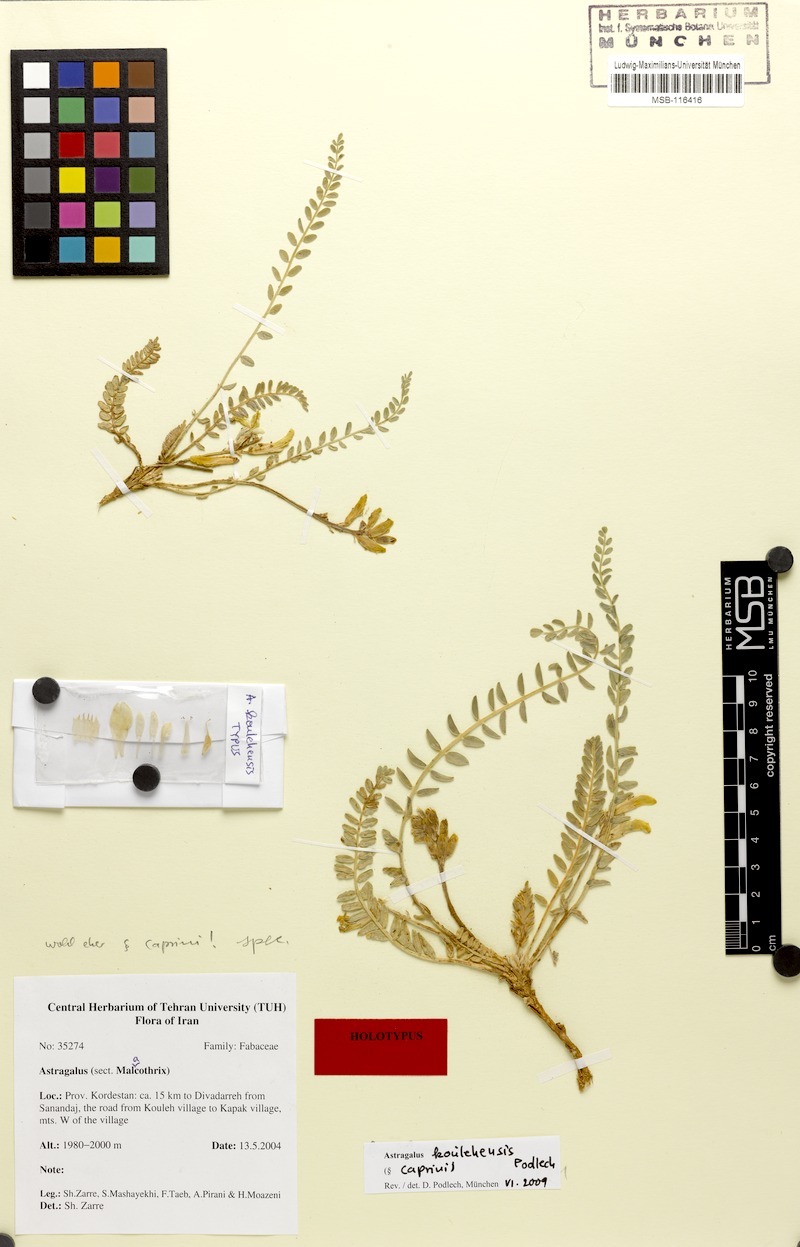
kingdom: Plantae
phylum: Tracheophyta
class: Magnoliopsida
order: Fabales
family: Fabaceae
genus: Astragalus
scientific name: Astragalus koulehensis
